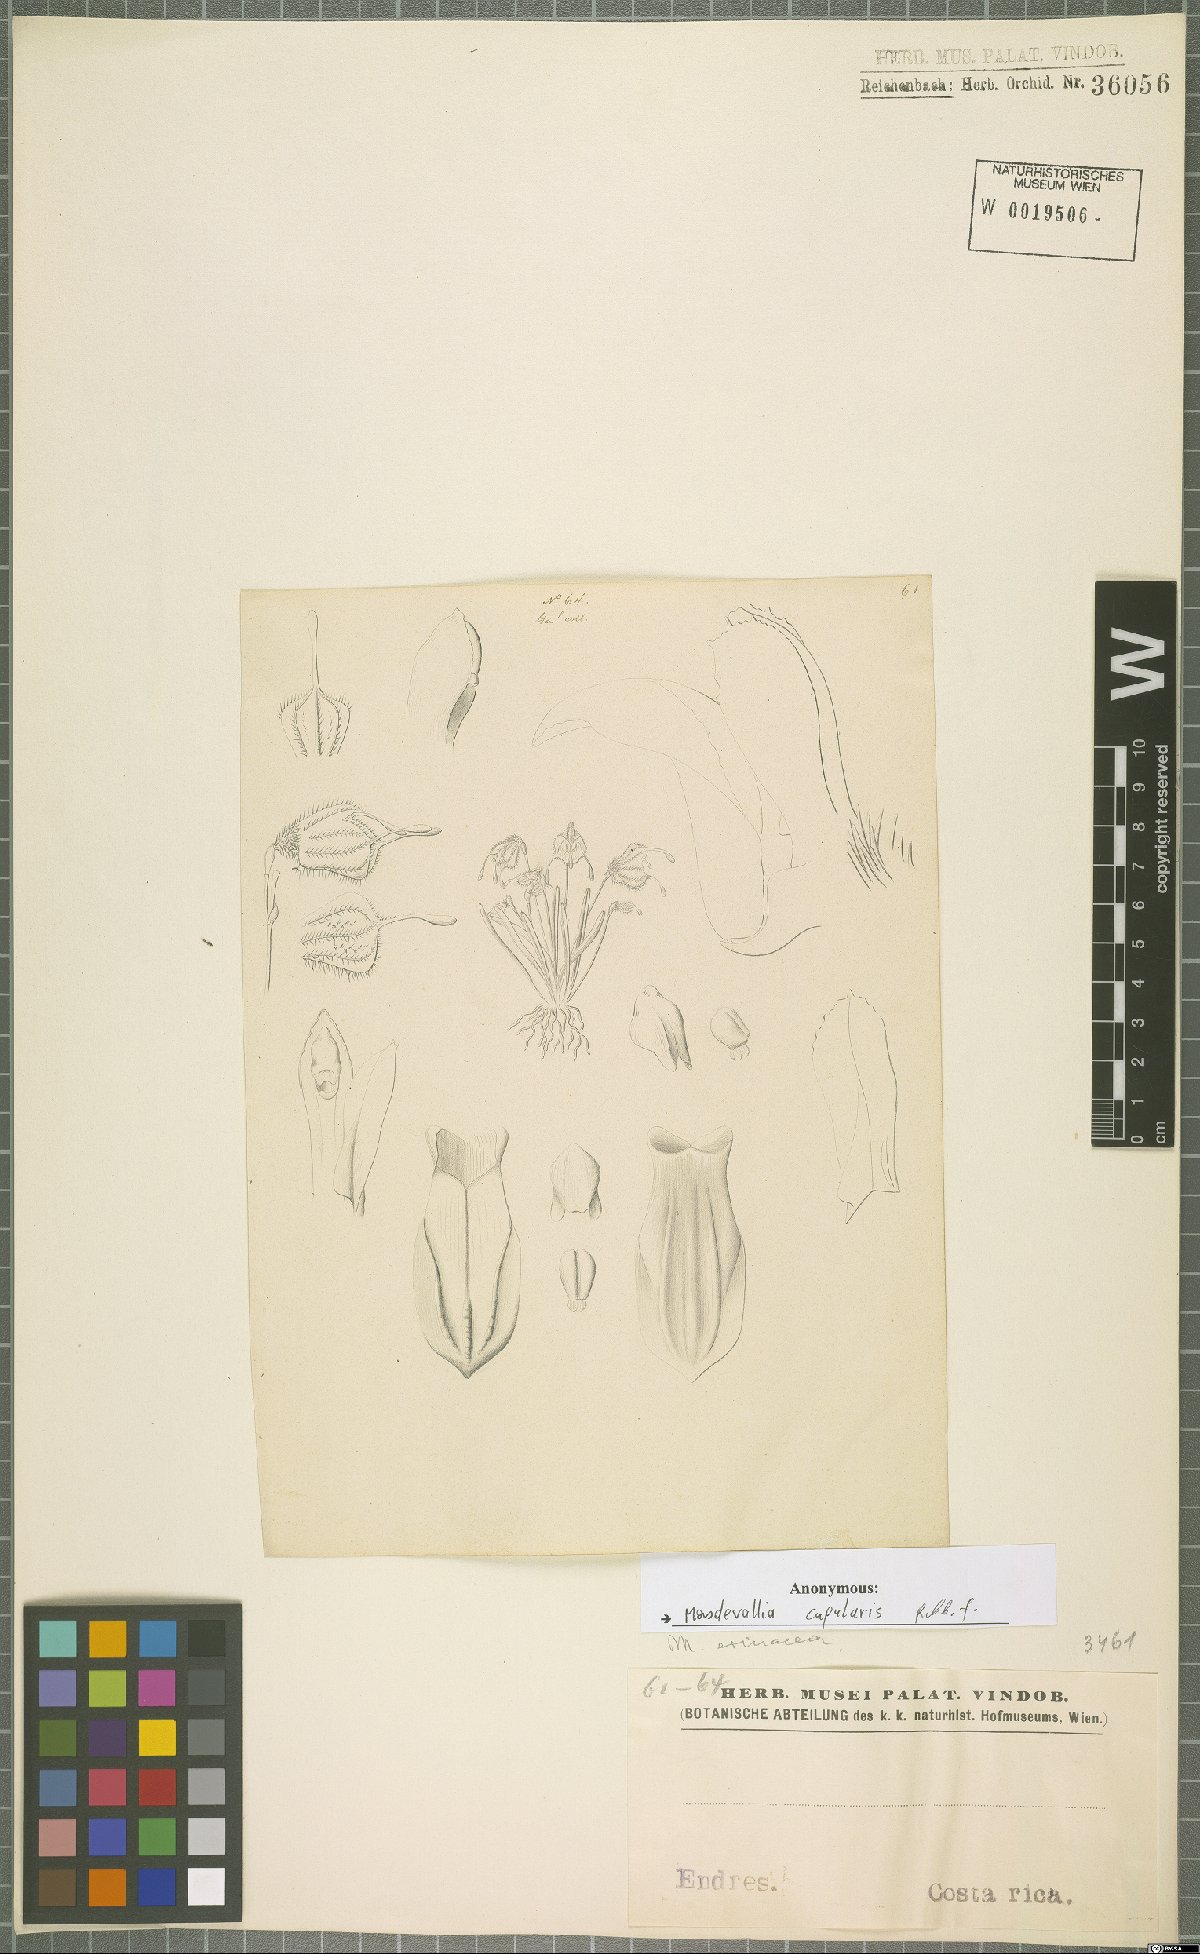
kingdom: Plantae
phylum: Tracheophyta
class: Liliopsida
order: Asparagales
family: Orchidaceae
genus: Diodonopsis
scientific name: Diodonopsis erinacea
